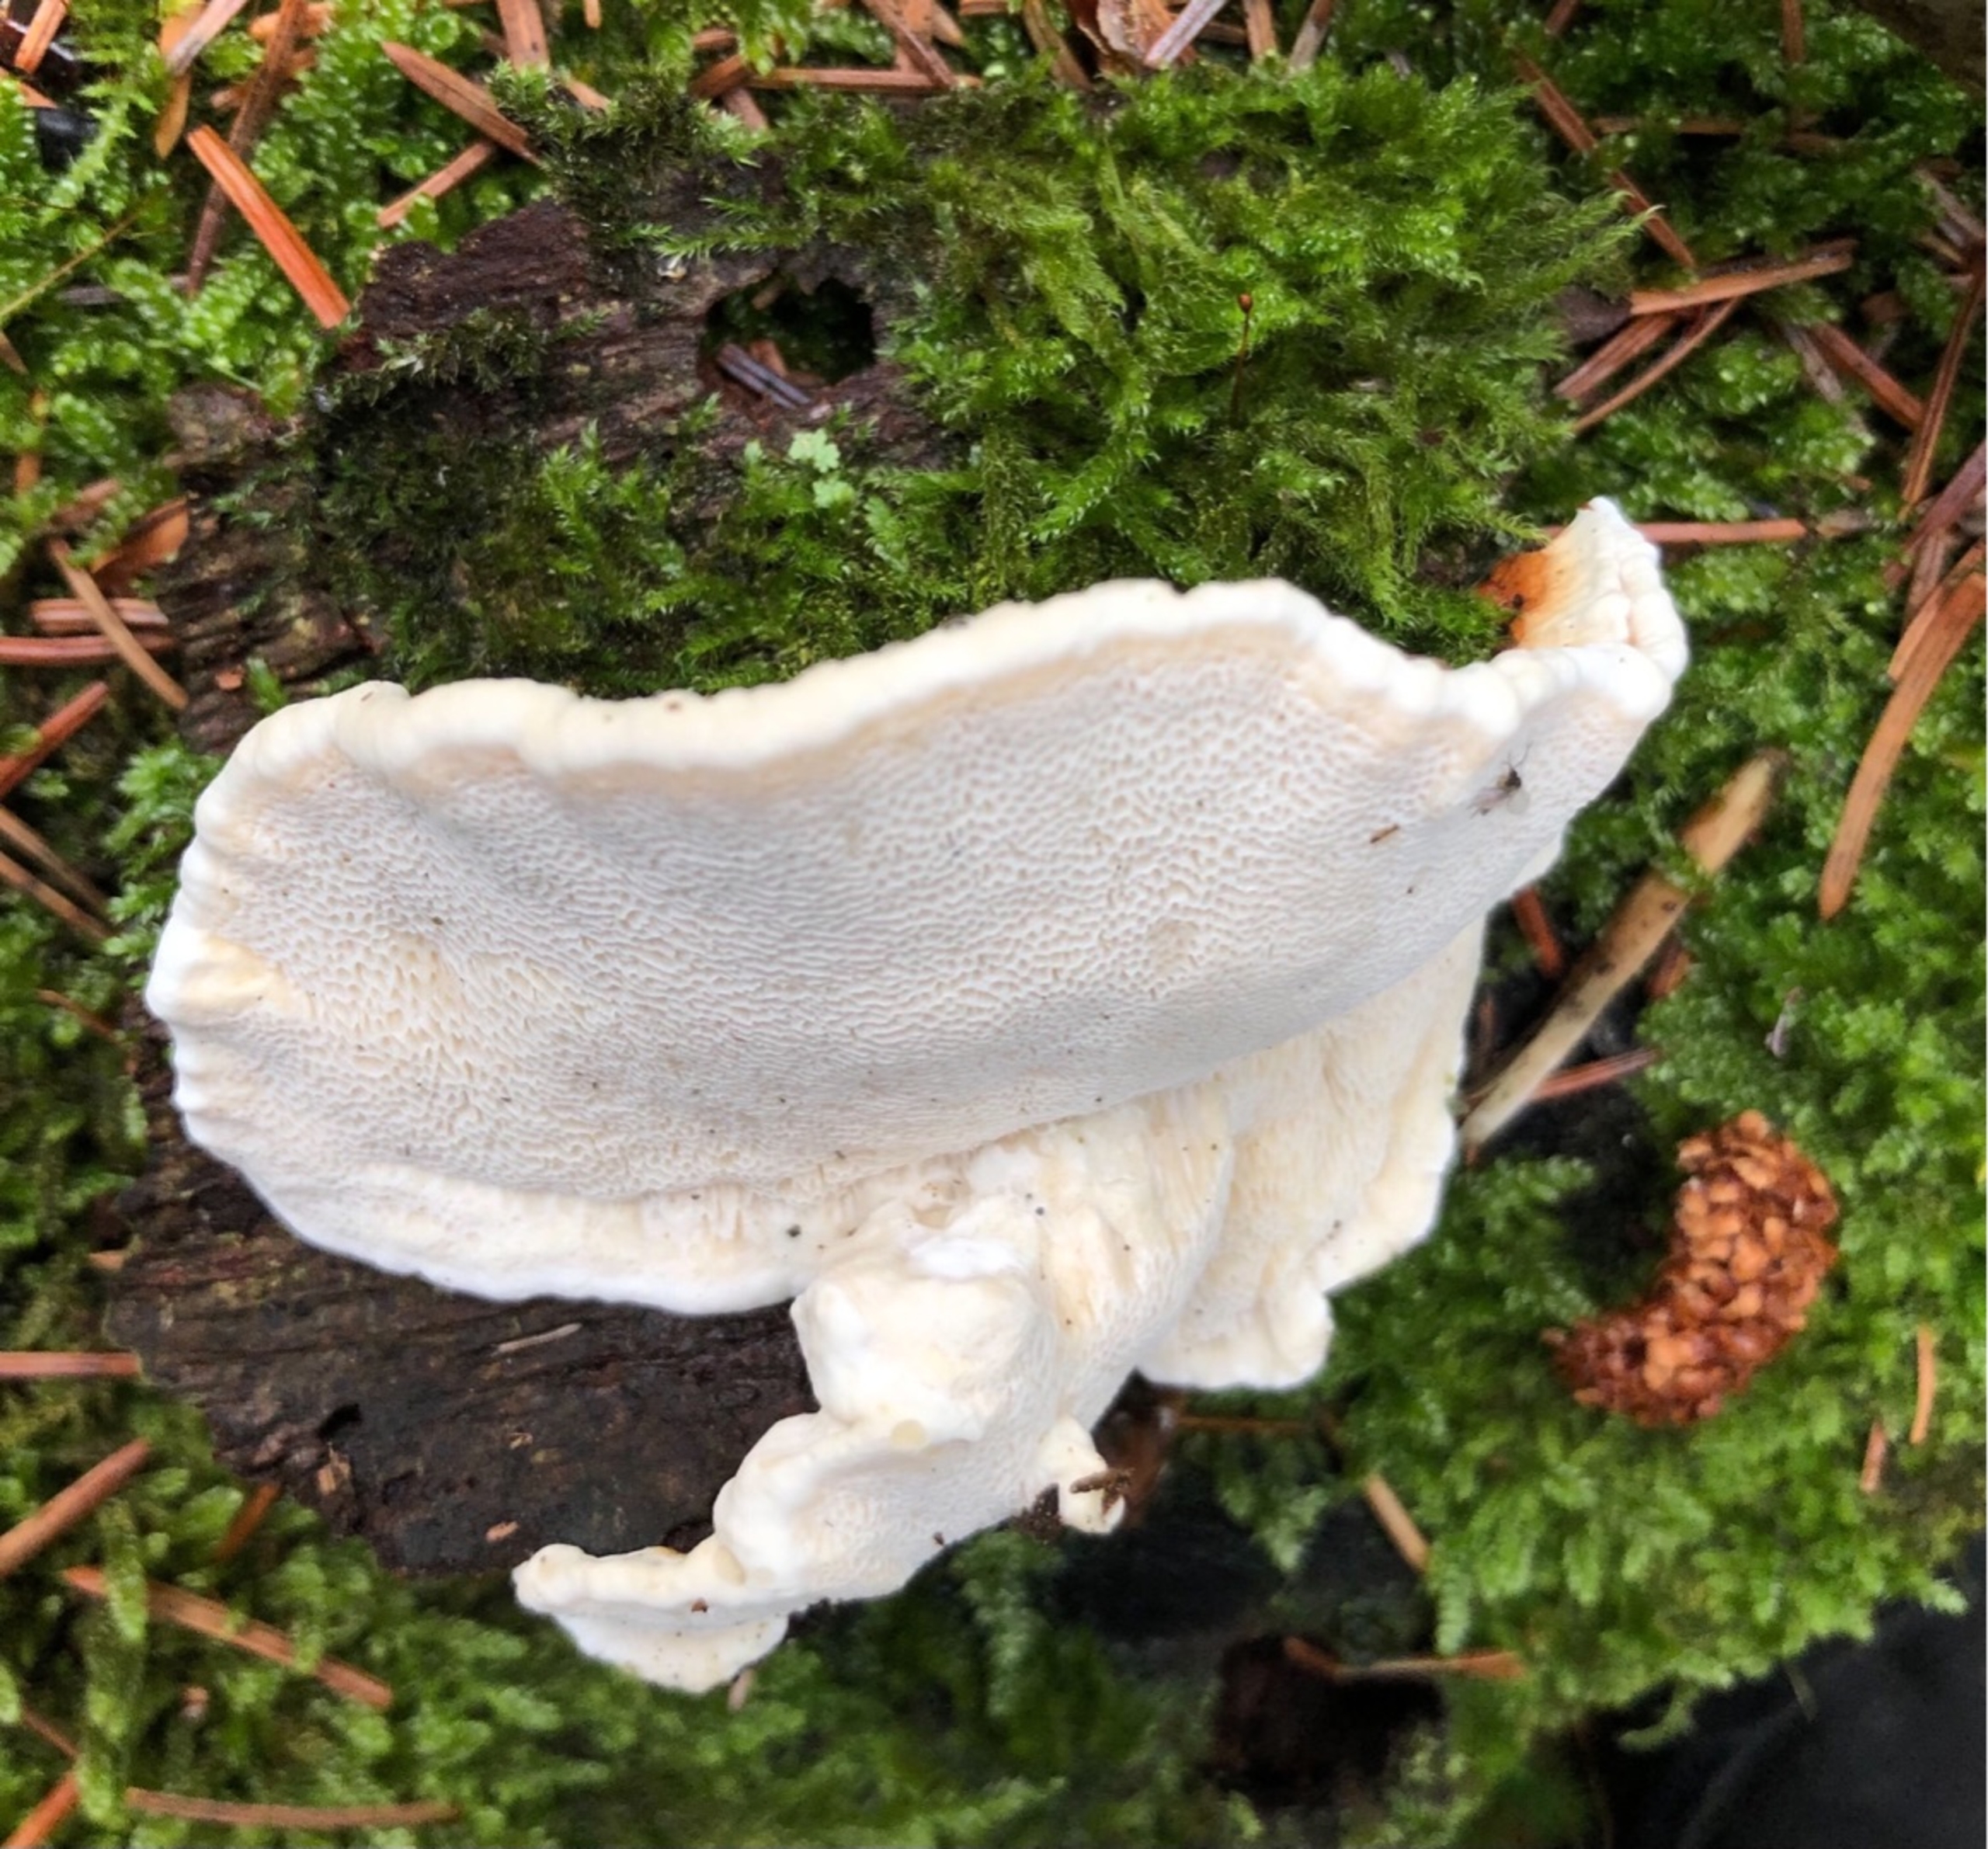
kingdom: Fungi
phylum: Basidiomycota
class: Agaricomycetes
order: Russulales
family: Bondarzewiaceae
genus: Heterobasidion
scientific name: Heterobasidion annosum
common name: Almindelig rodfordærver
